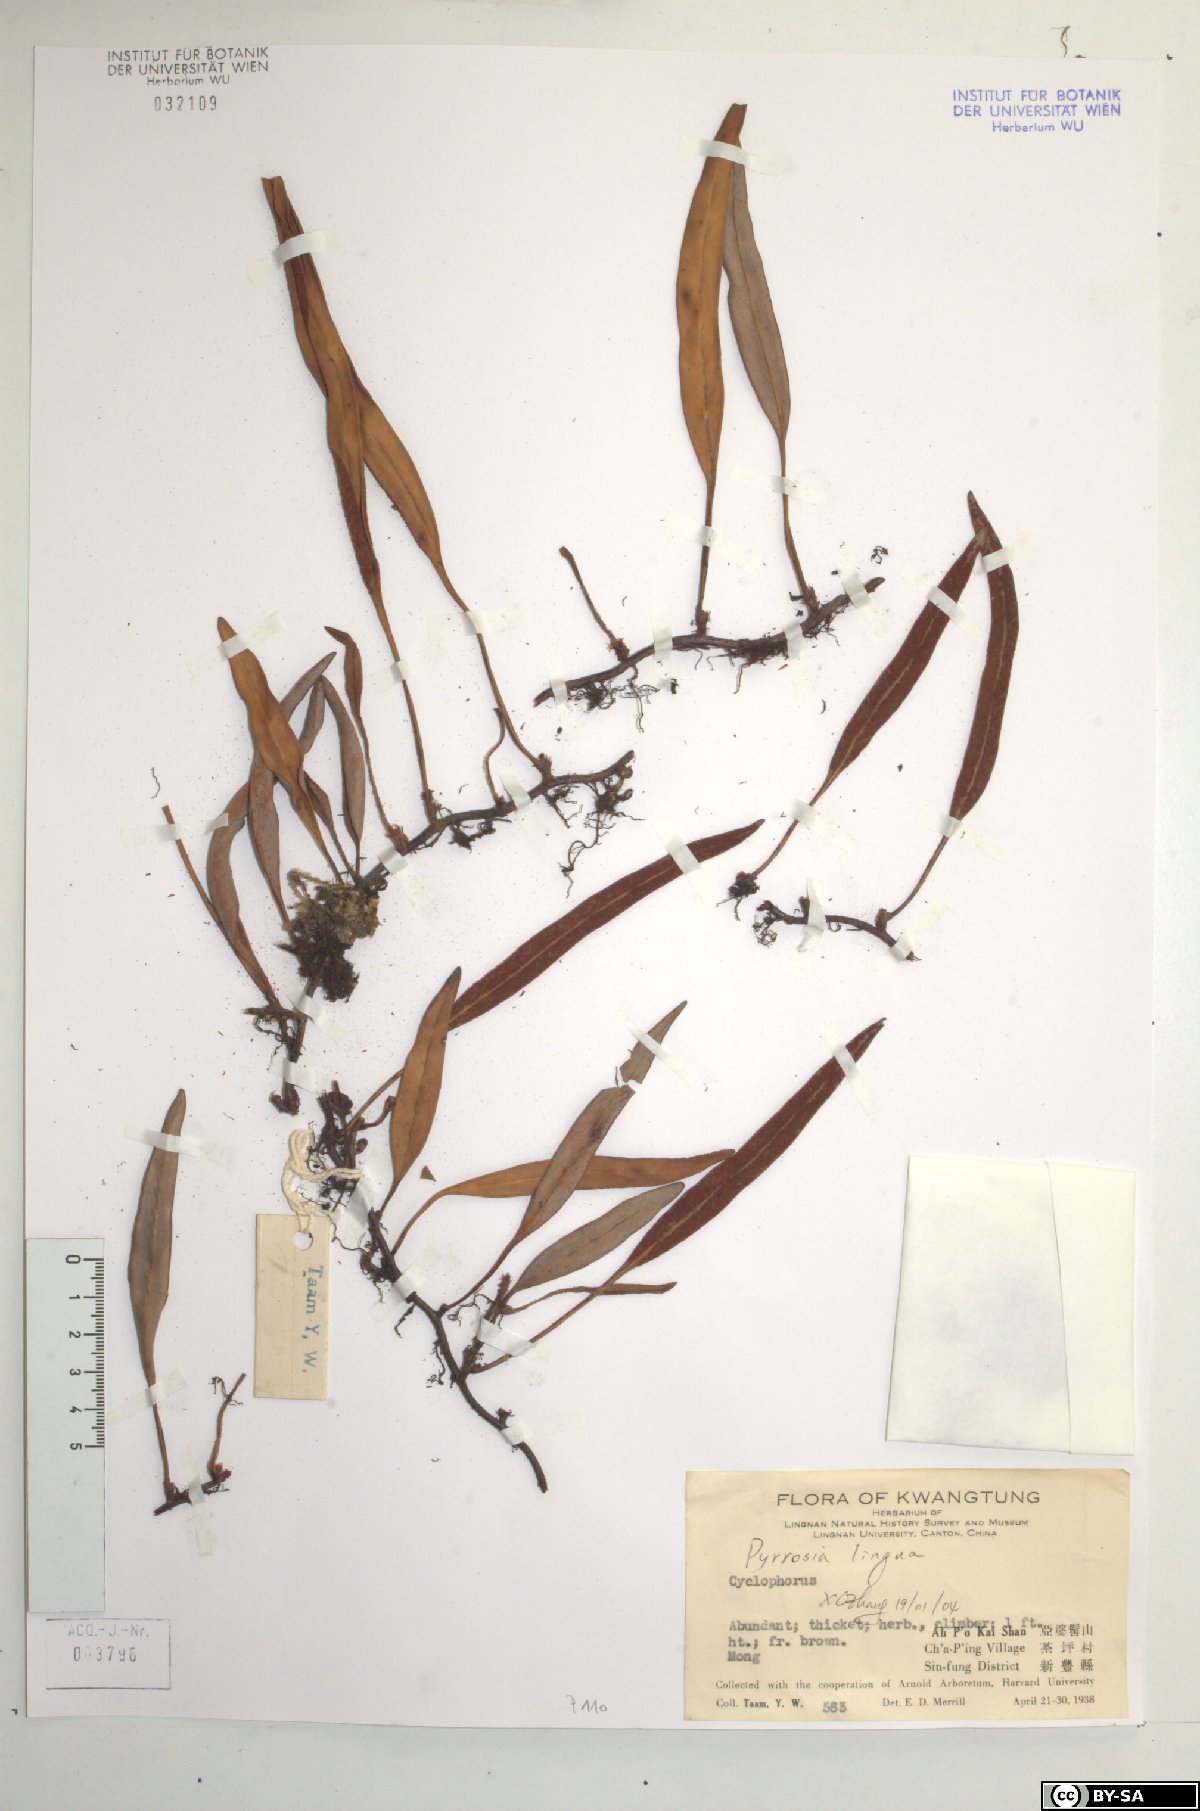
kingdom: Plantae
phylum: Tracheophyta
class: Polypodiopsida
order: Polypodiales
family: Polypodiaceae
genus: Pyrrosia
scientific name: Pyrrosia lingua
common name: Felt fern
